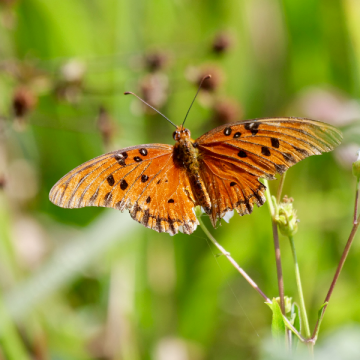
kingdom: Animalia
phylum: Arthropoda
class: Insecta
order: Lepidoptera
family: Nymphalidae
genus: Dione
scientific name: Dione vanillae
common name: Gulf Fritillary
